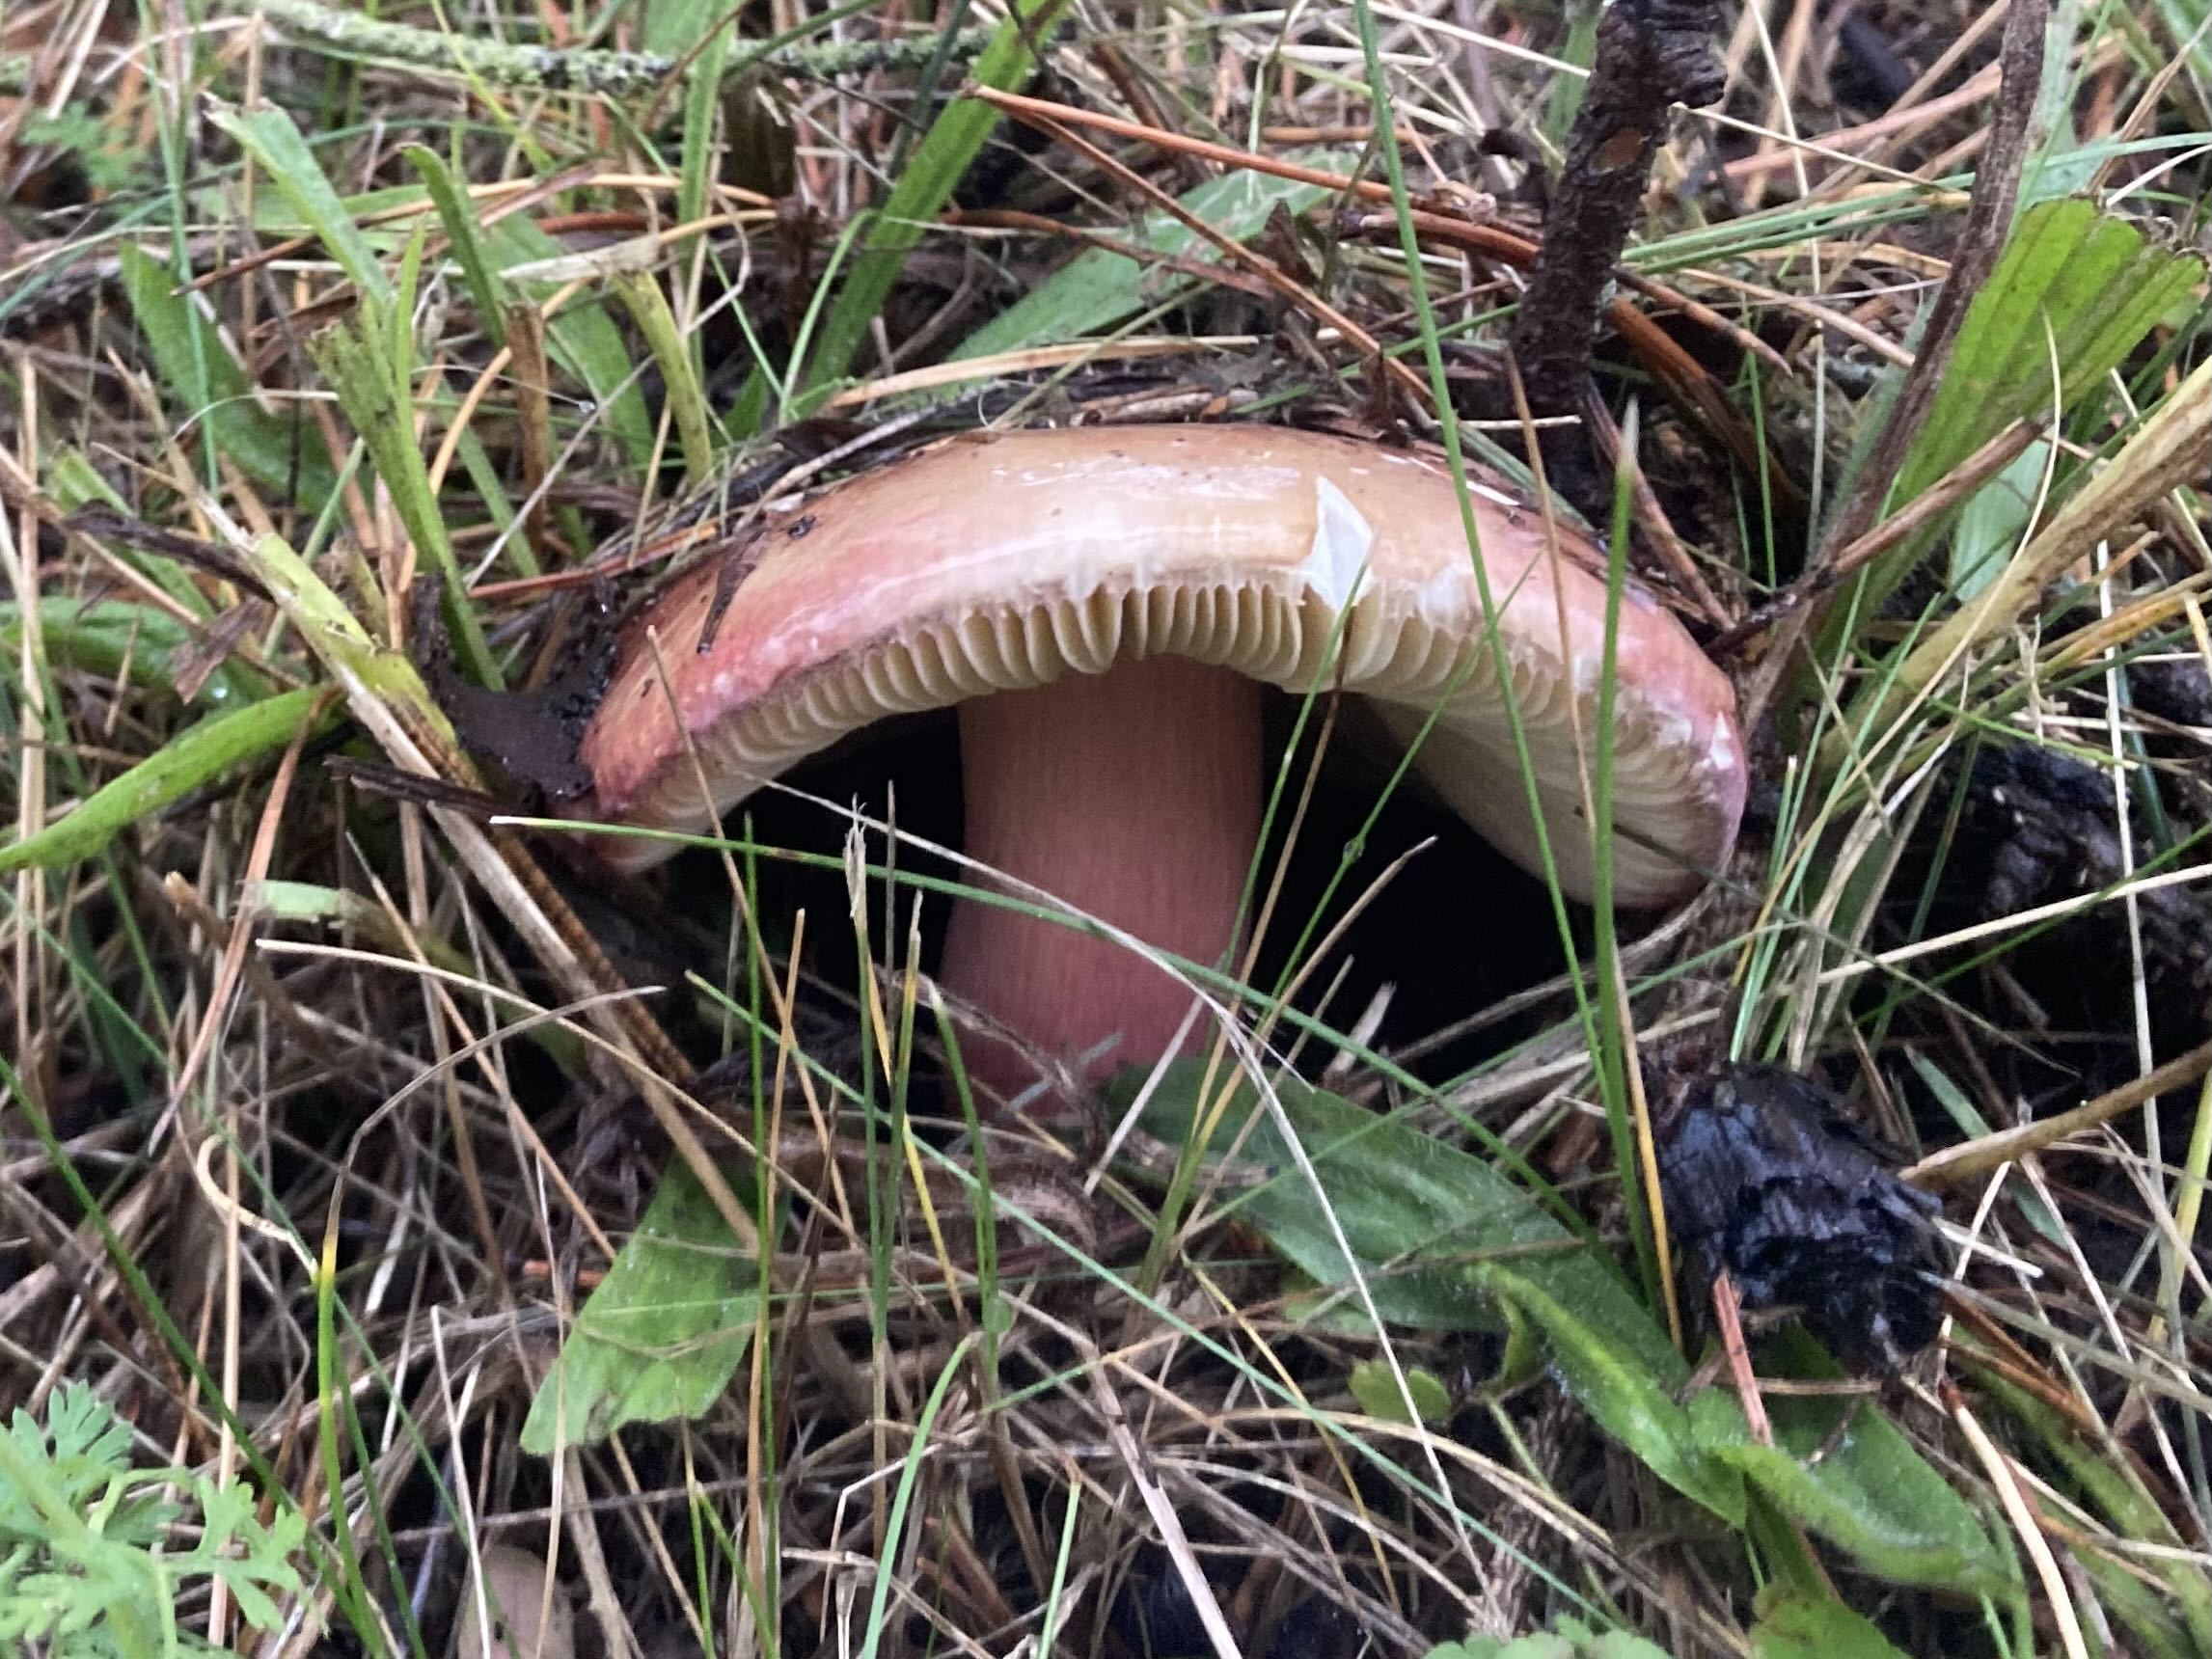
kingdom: Fungi
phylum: Basidiomycota
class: Agaricomycetes
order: Russulales
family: Russulaceae
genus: Russula
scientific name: Russula xerampelina
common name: hummer-skørhat
